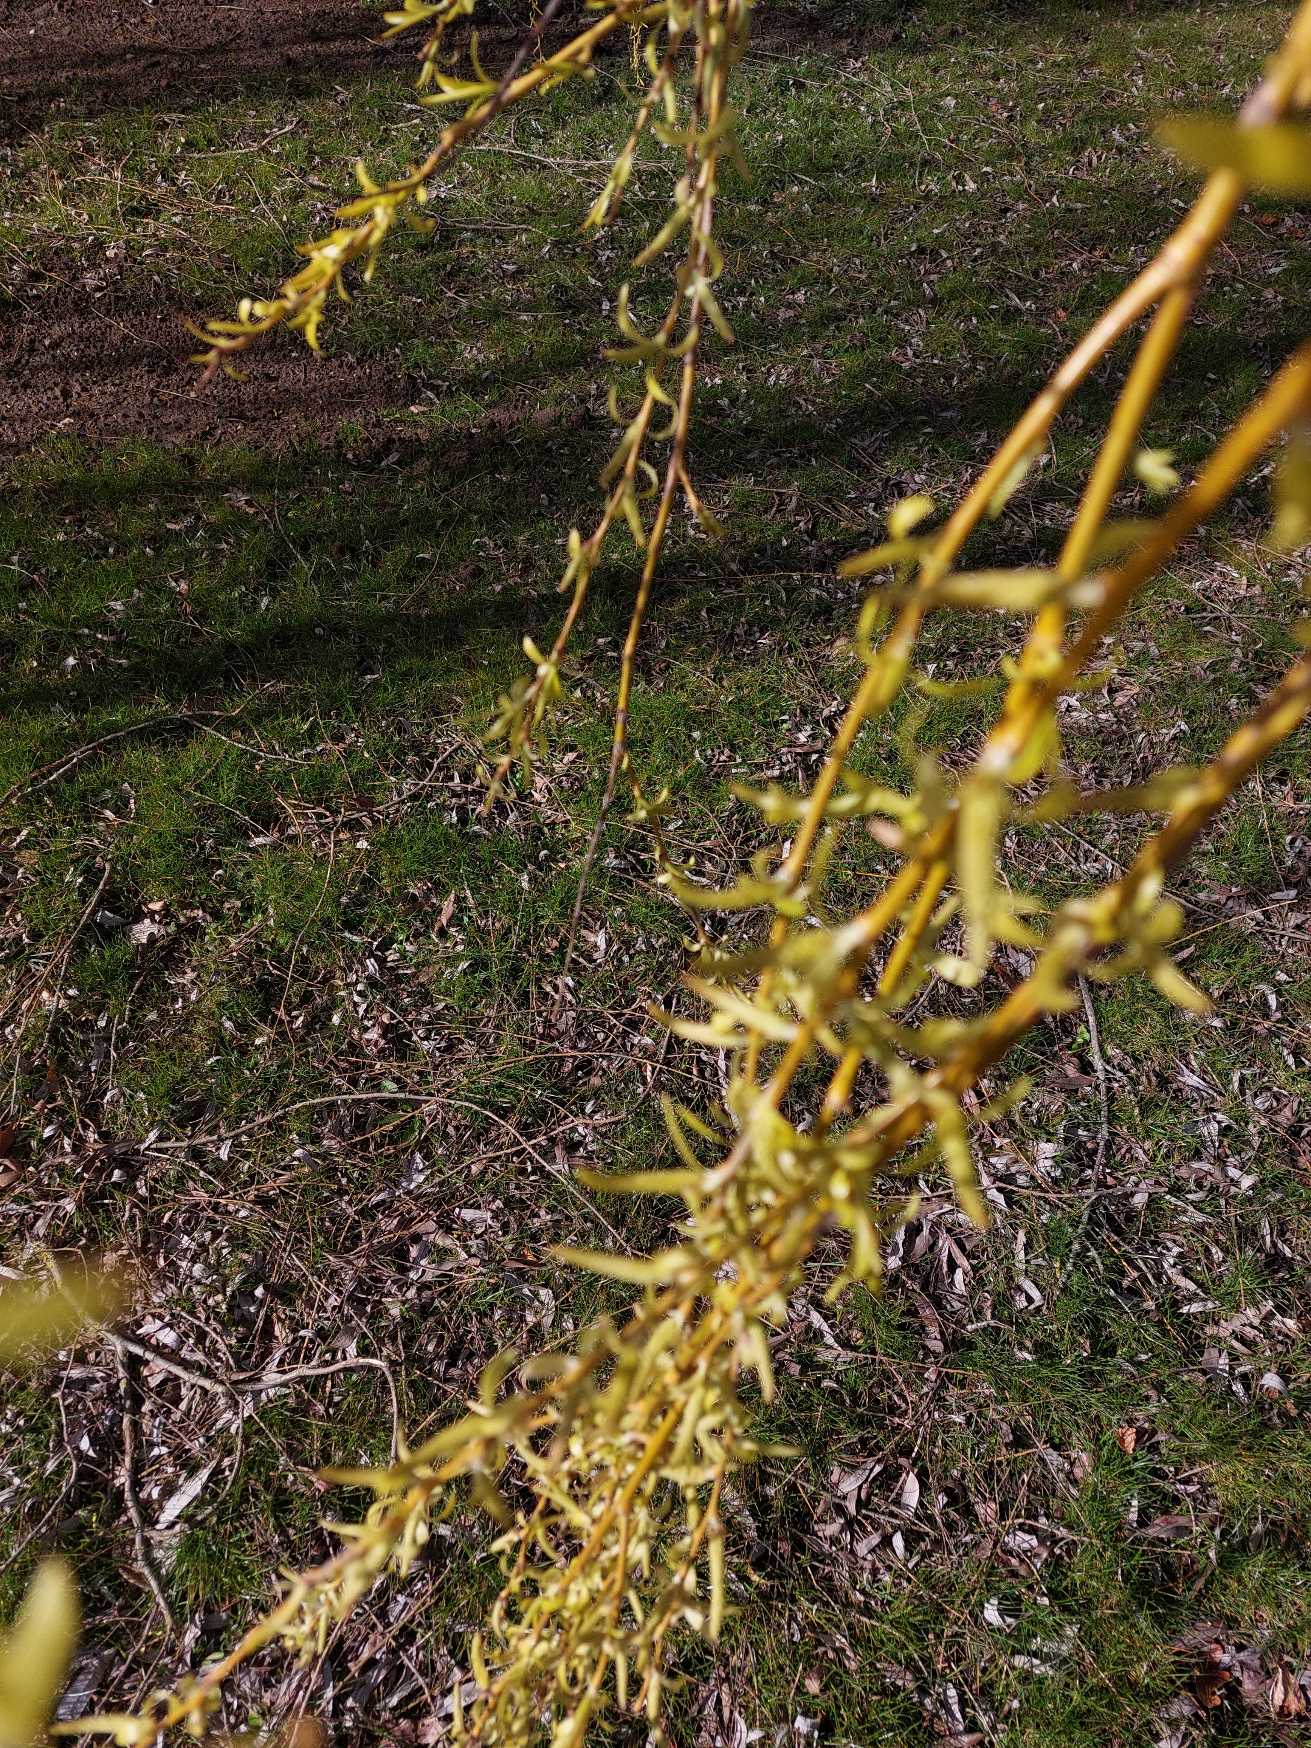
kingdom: Plantae
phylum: Tracheophyta
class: Magnoliopsida
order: Malpighiales
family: Salicaceae
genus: Salix
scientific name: Salix sepulcralis
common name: Hænge-pil
